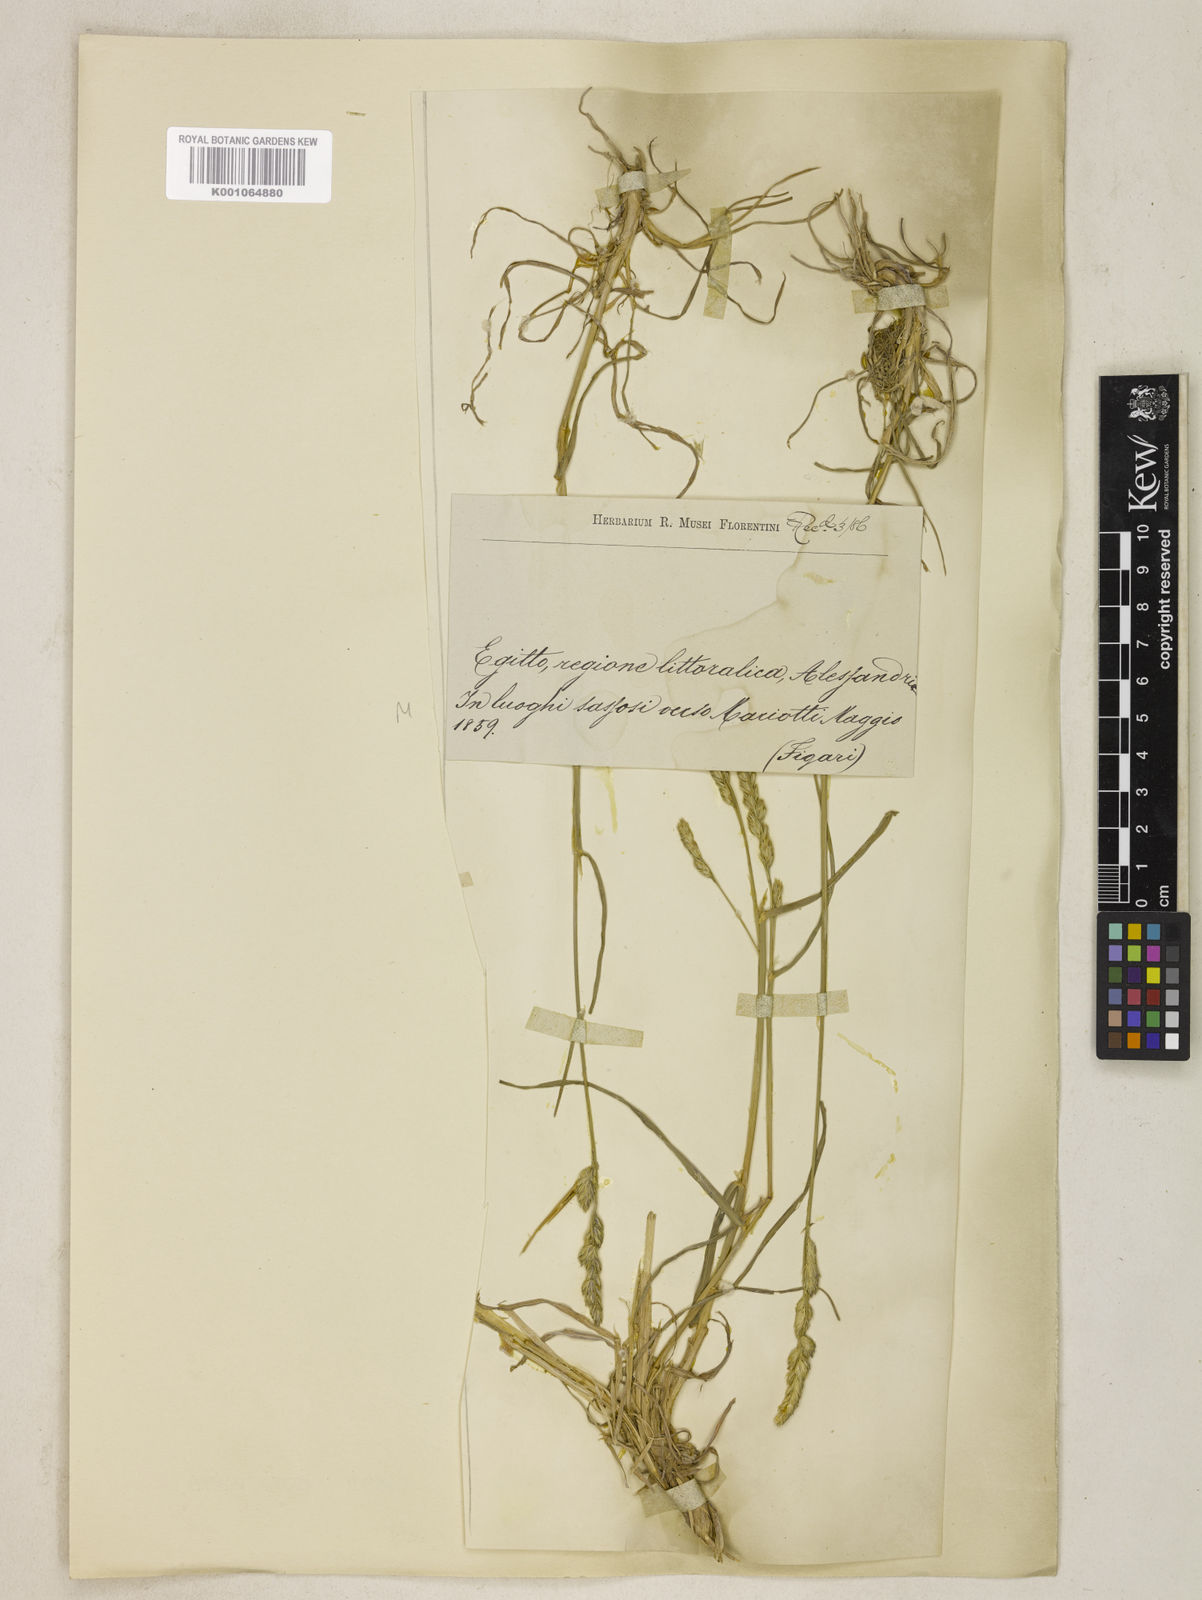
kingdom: Plantae
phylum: Tracheophyta
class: Liliopsida
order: Poales
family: Poaceae
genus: Dactylis
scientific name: Dactylis glomerata
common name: Orchardgrass
